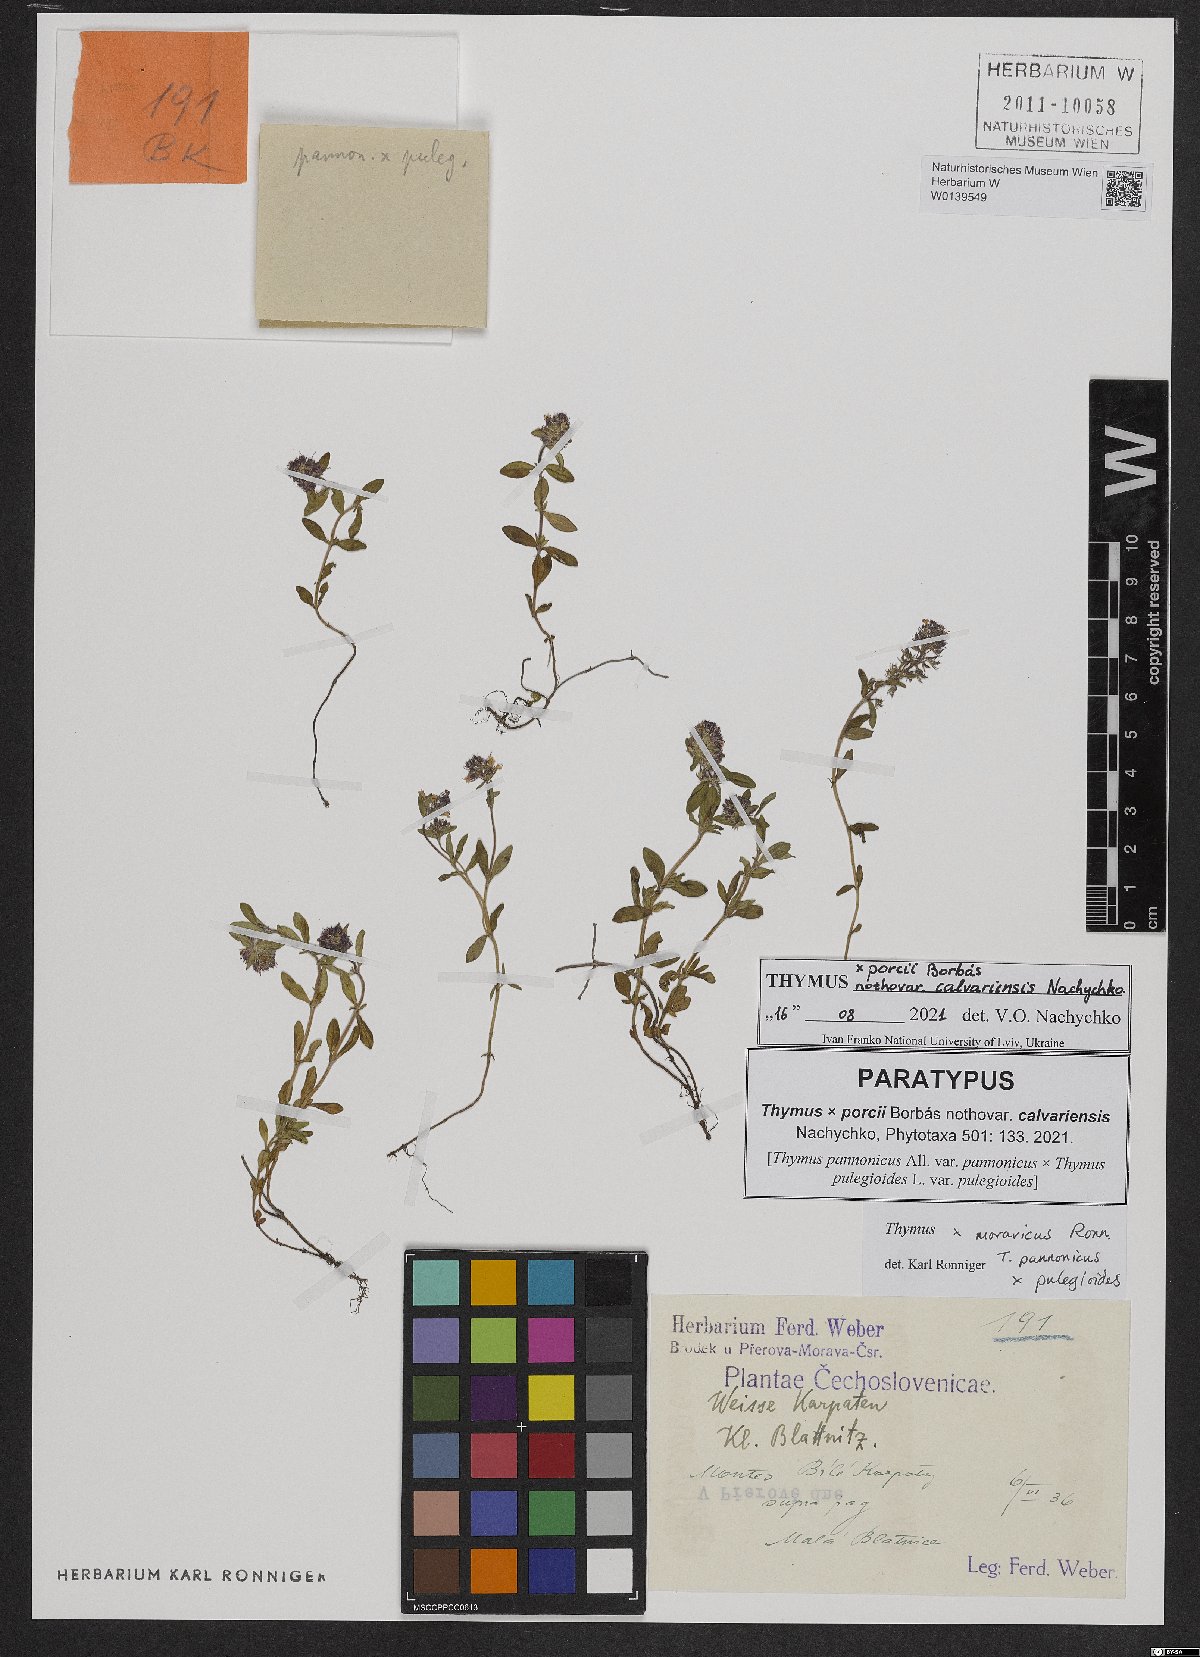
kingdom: Plantae
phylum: Tracheophyta
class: Magnoliopsida
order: Lamiales
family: Lamiaceae
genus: Thymus
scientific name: Thymus porcii
